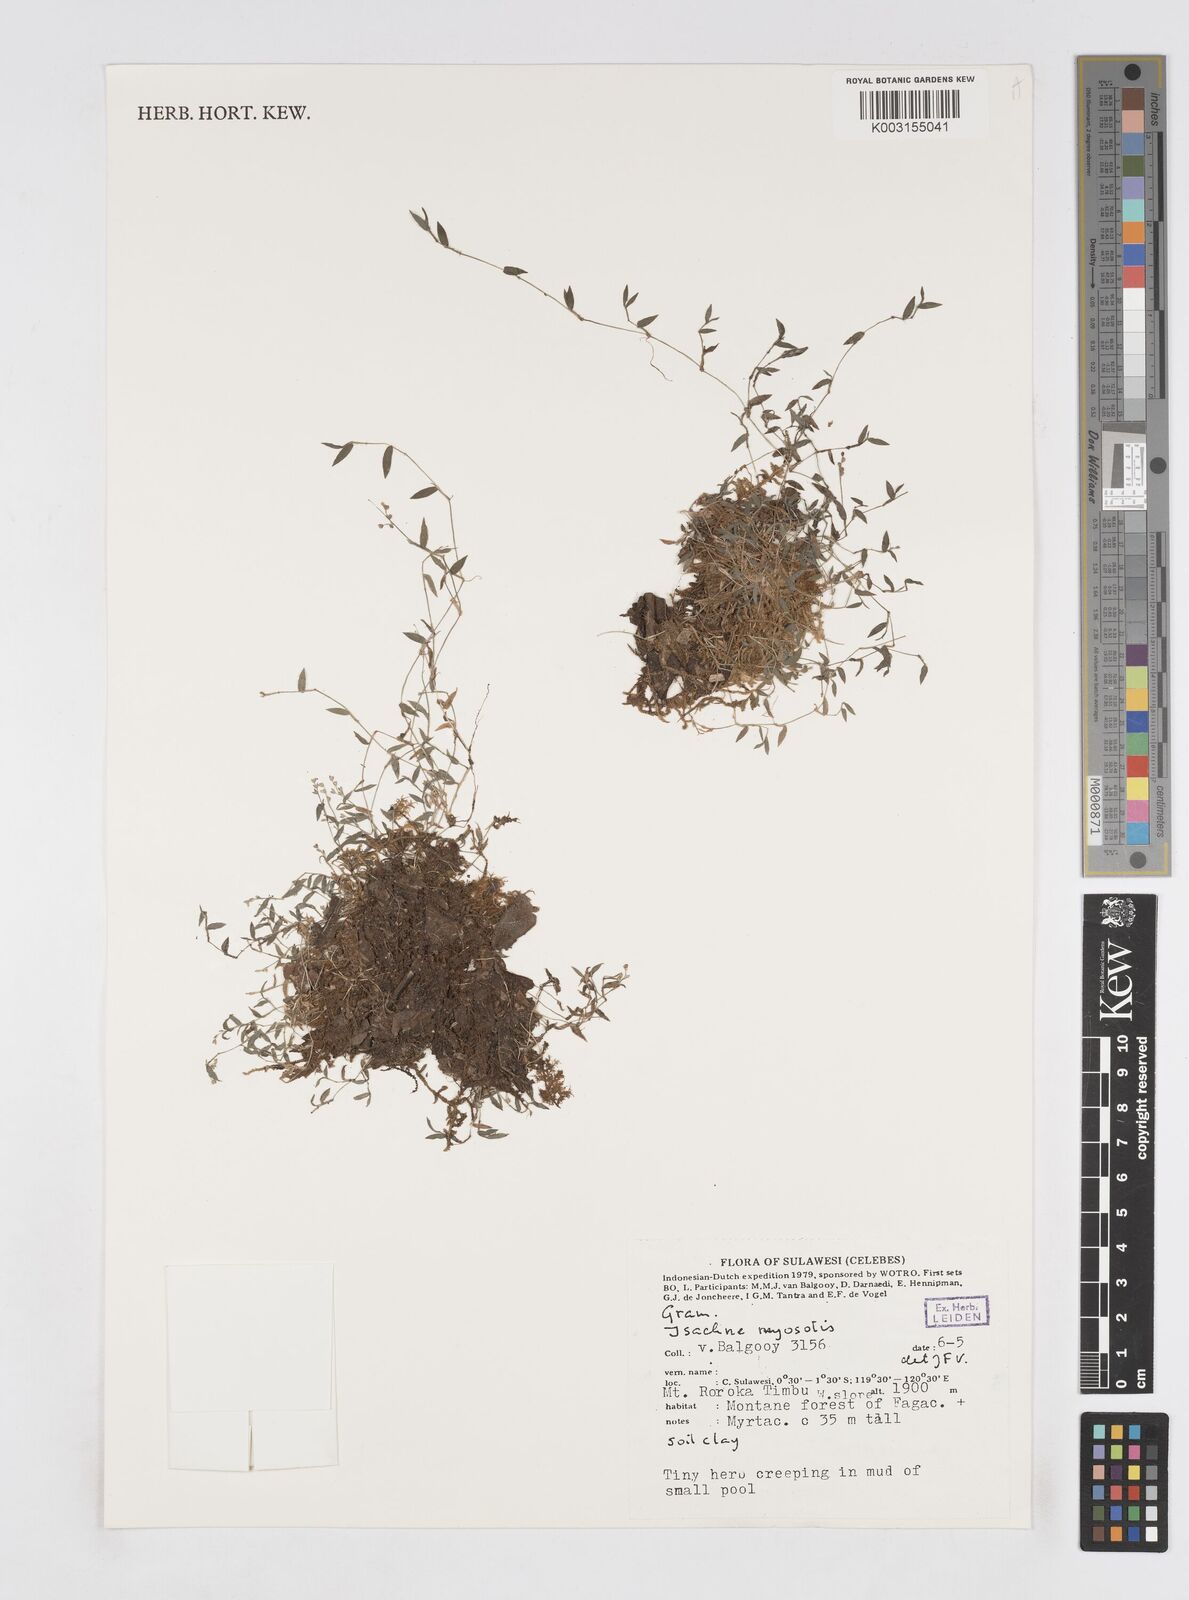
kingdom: Plantae
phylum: Tracheophyta
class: Liliopsida
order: Poales
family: Poaceae
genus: Isachne
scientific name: Isachne myosotis
